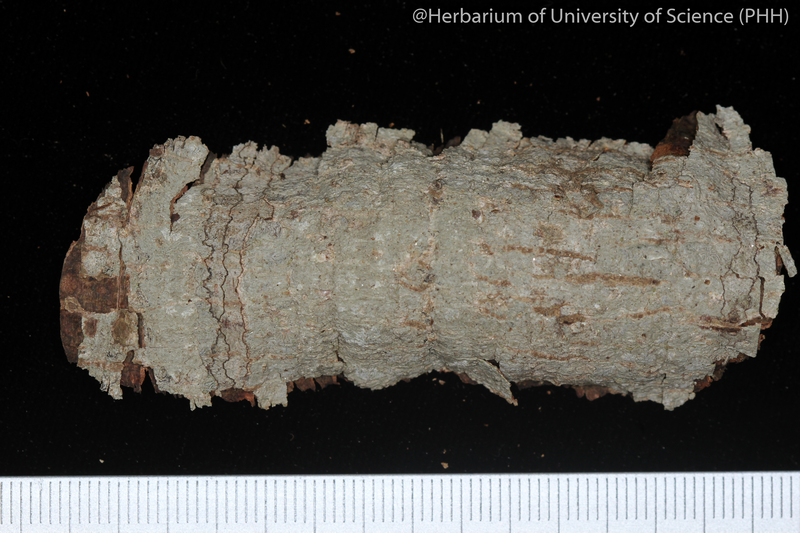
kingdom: Fungi
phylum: Ascomycota
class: Lecanoromycetes
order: Ostropales
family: Graphidaceae
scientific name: Graphidaceae
